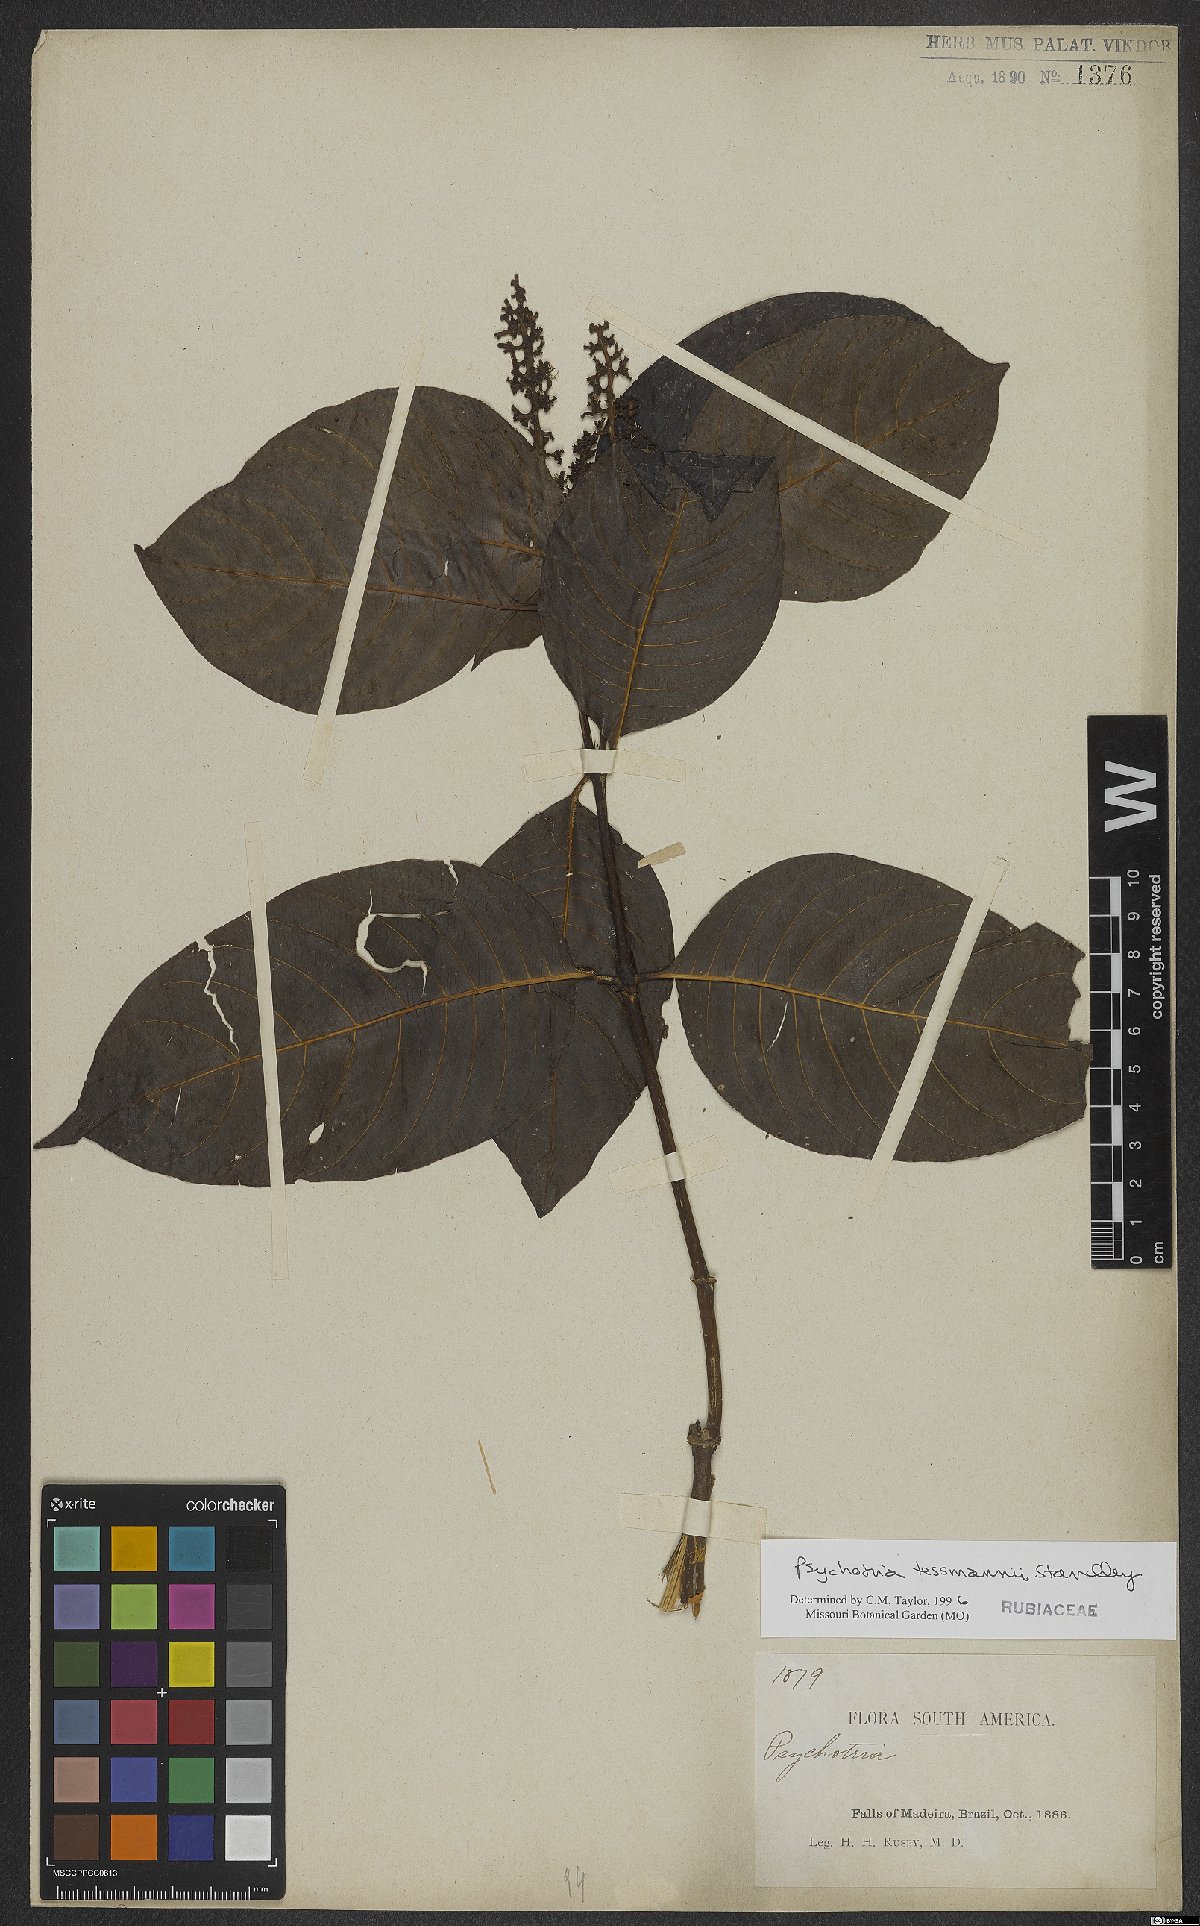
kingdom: Plantae
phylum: Tracheophyta
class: Magnoliopsida
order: Gentianales
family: Rubiaceae
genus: Palicourea
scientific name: Palicourea subfusca
